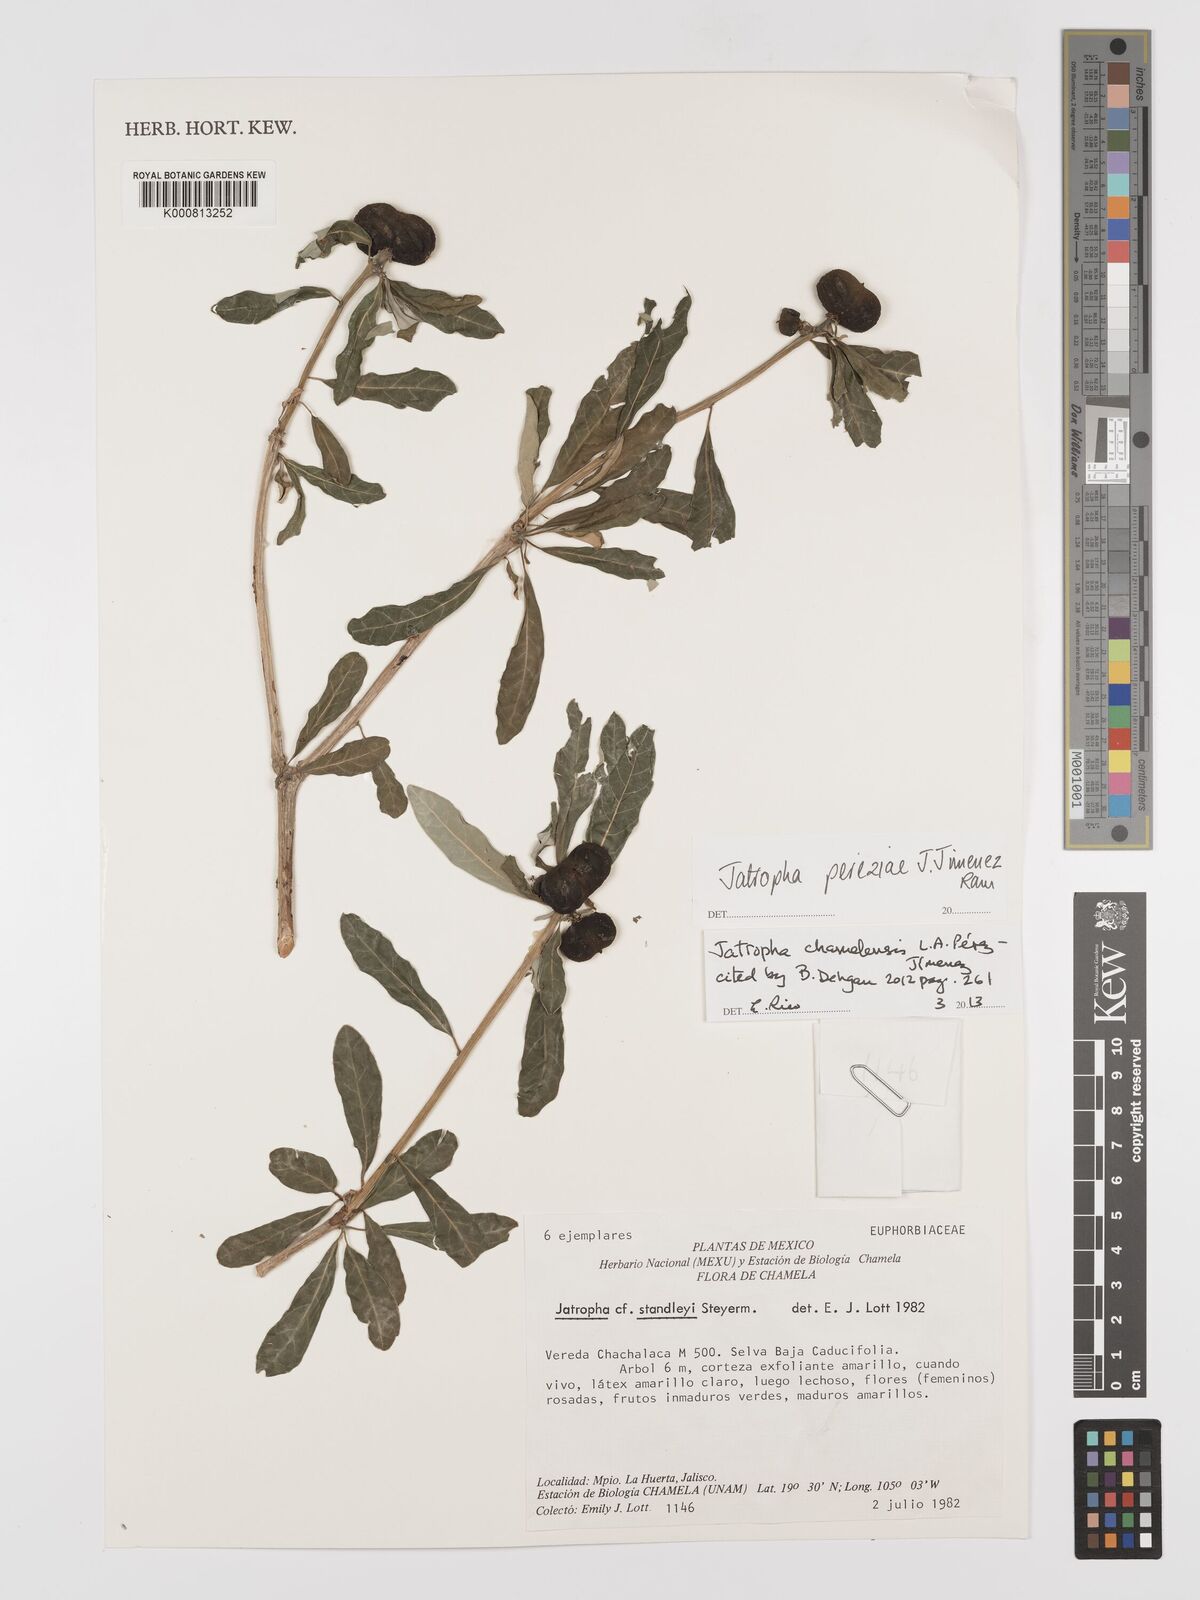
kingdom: Plantae
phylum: Tracheophyta
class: Magnoliopsida
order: Malpighiales
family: Euphorbiaceae
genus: Jatropha
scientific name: Jatropha
